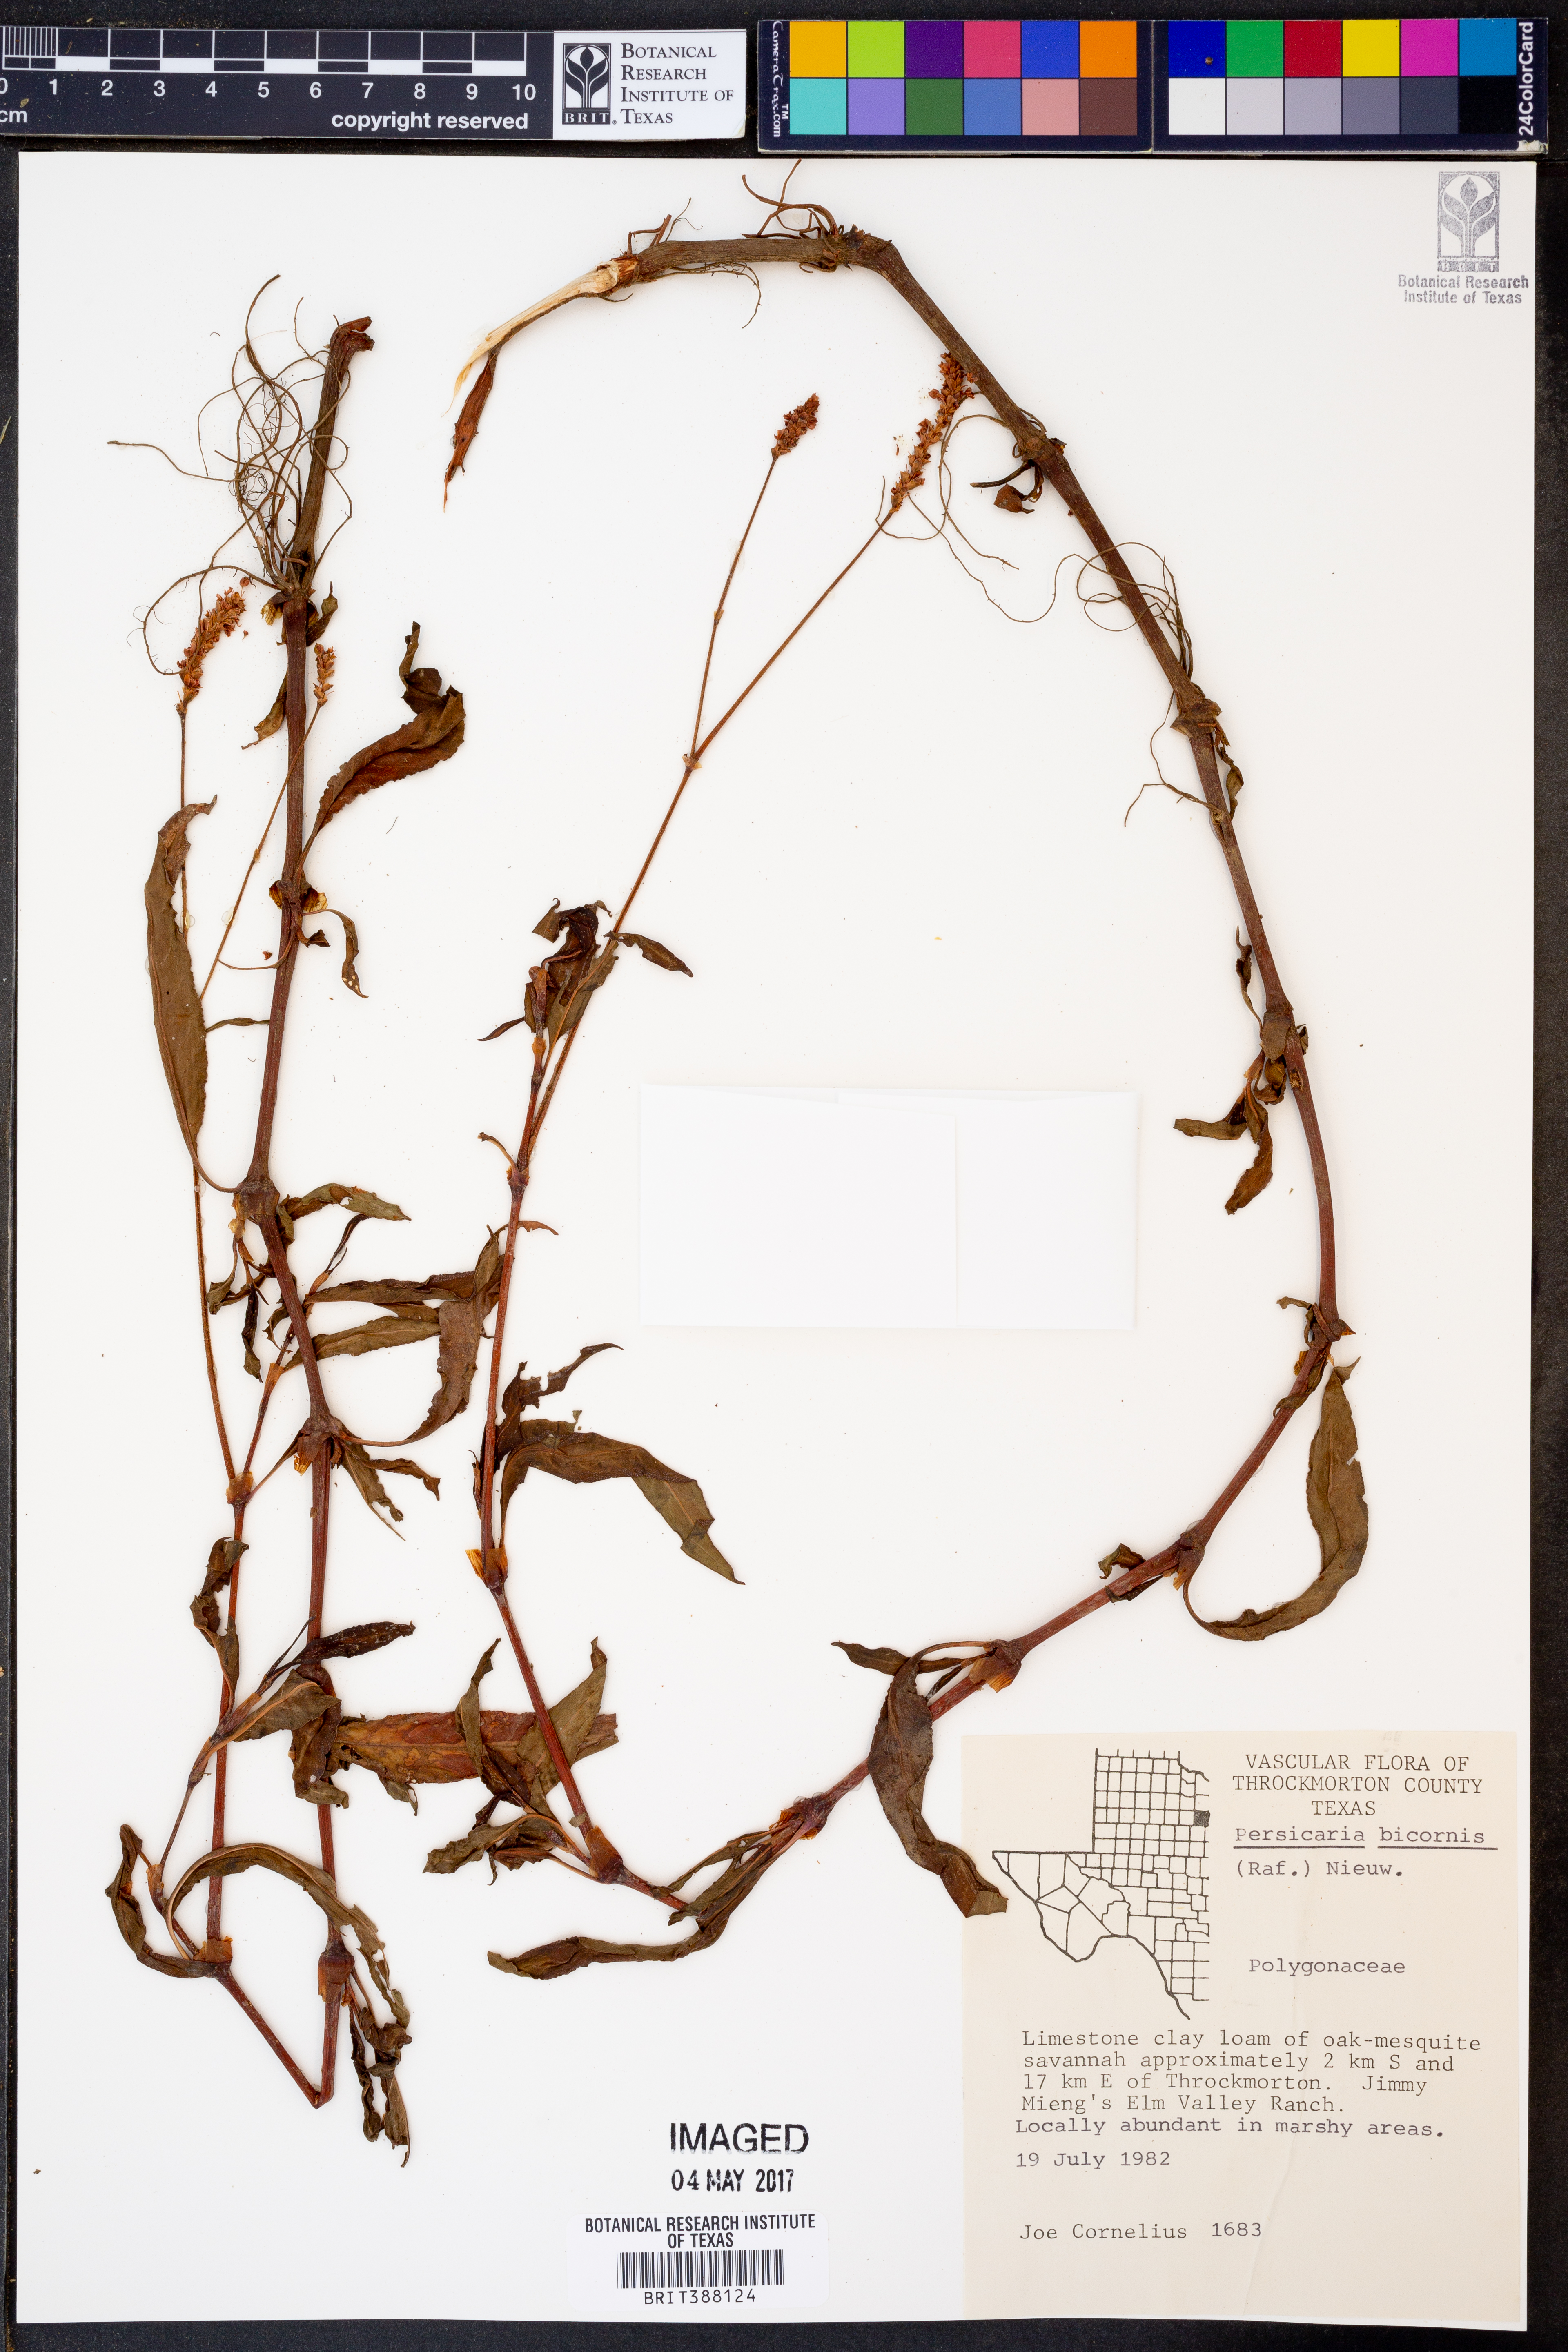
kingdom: Plantae
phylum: Tracheophyta
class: Magnoliopsida
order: Caryophyllales
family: Polygonaceae
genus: Persicaria
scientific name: Persicaria bicornis
